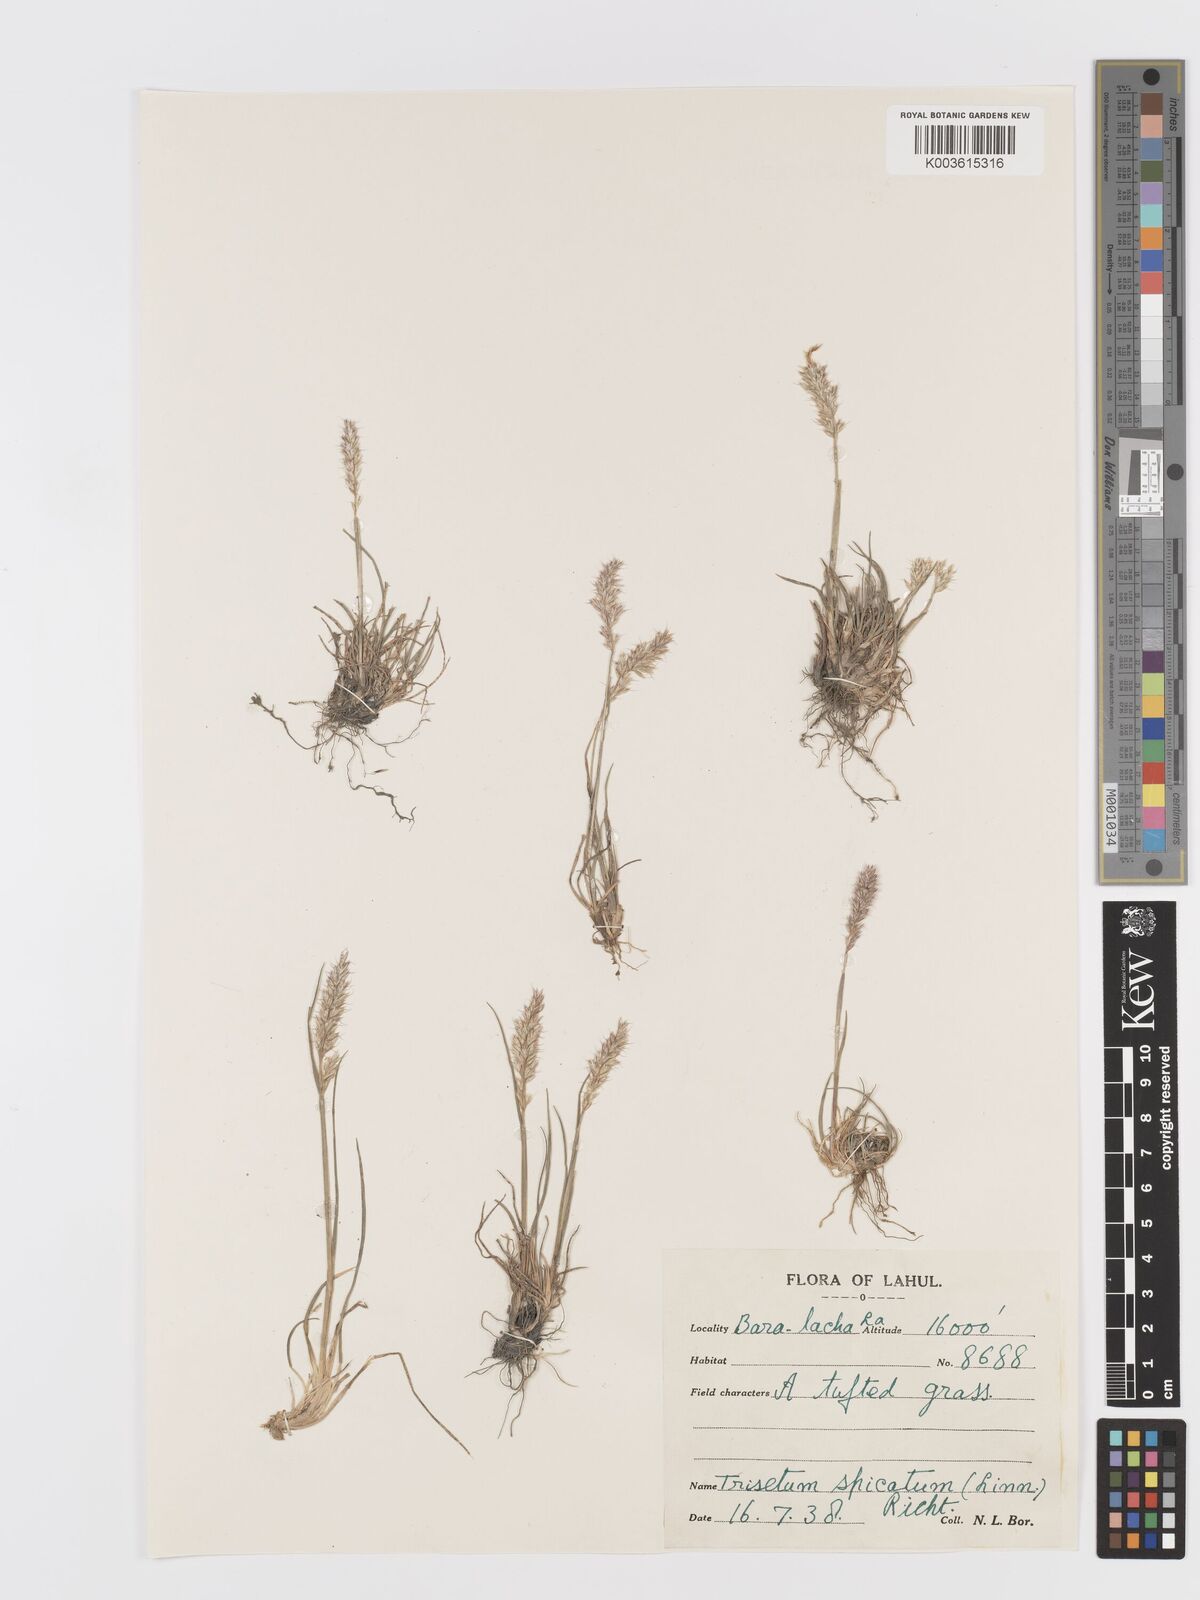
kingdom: Plantae
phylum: Tracheophyta
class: Liliopsida
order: Poales
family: Poaceae
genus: Koeleria
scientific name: Koeleria spicata
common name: Mountain trisetum
